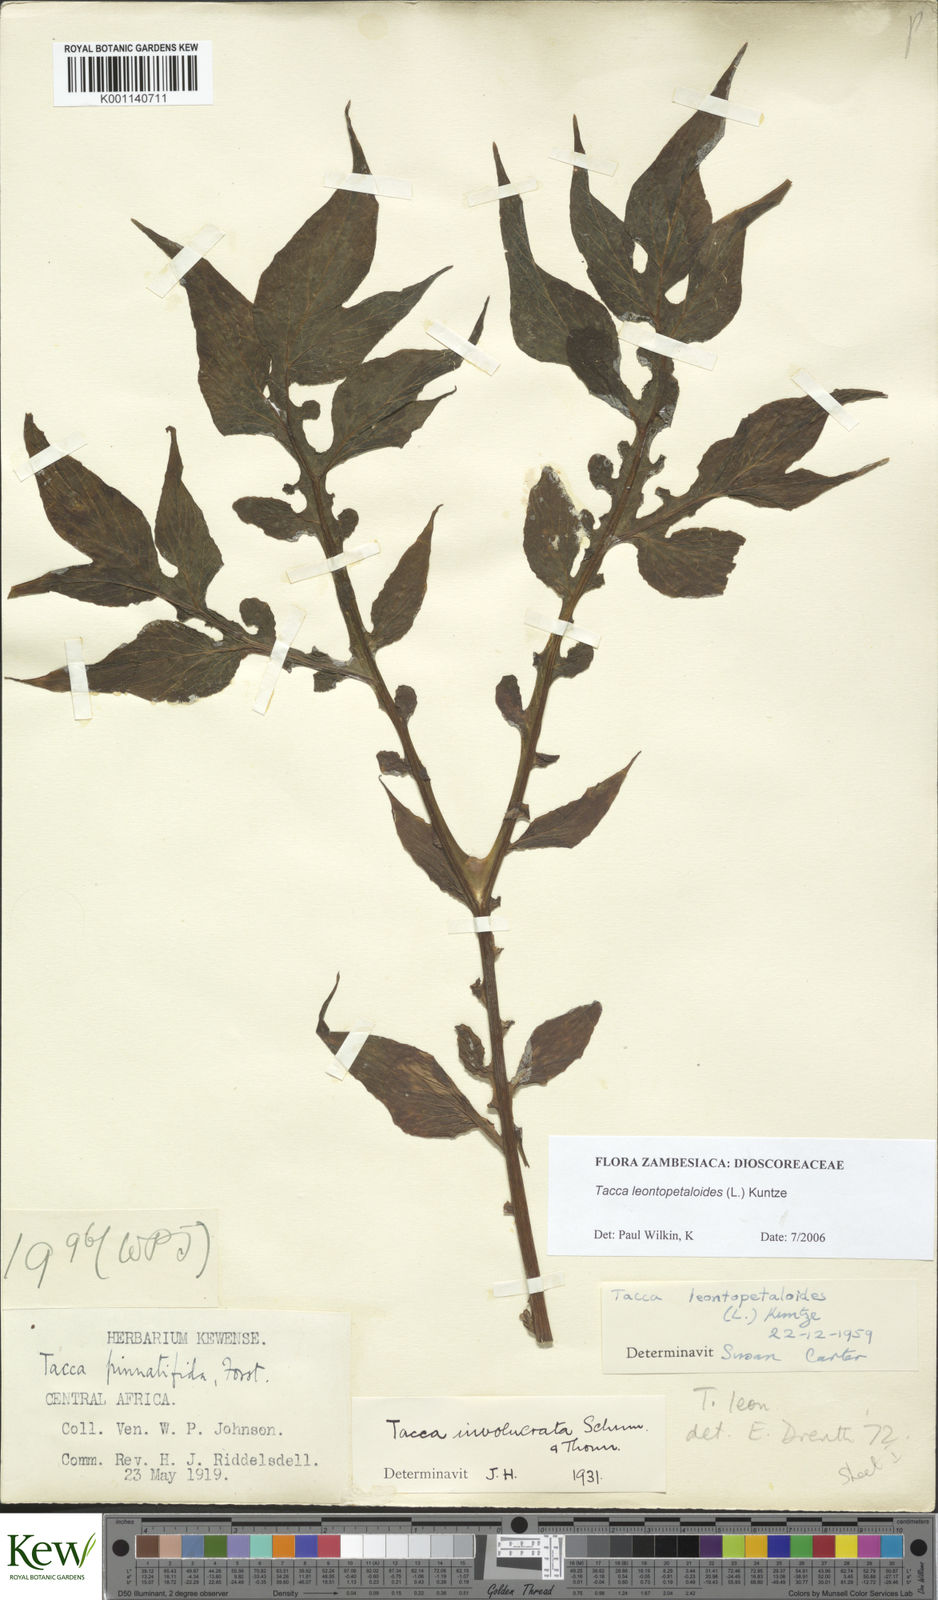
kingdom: Plantae
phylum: Tracheophyta
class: Liliopsida
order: Dioscoreales
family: Dioscoreaceae
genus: Tacca
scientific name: Tacca leontopetaloides
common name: Arrowroot
